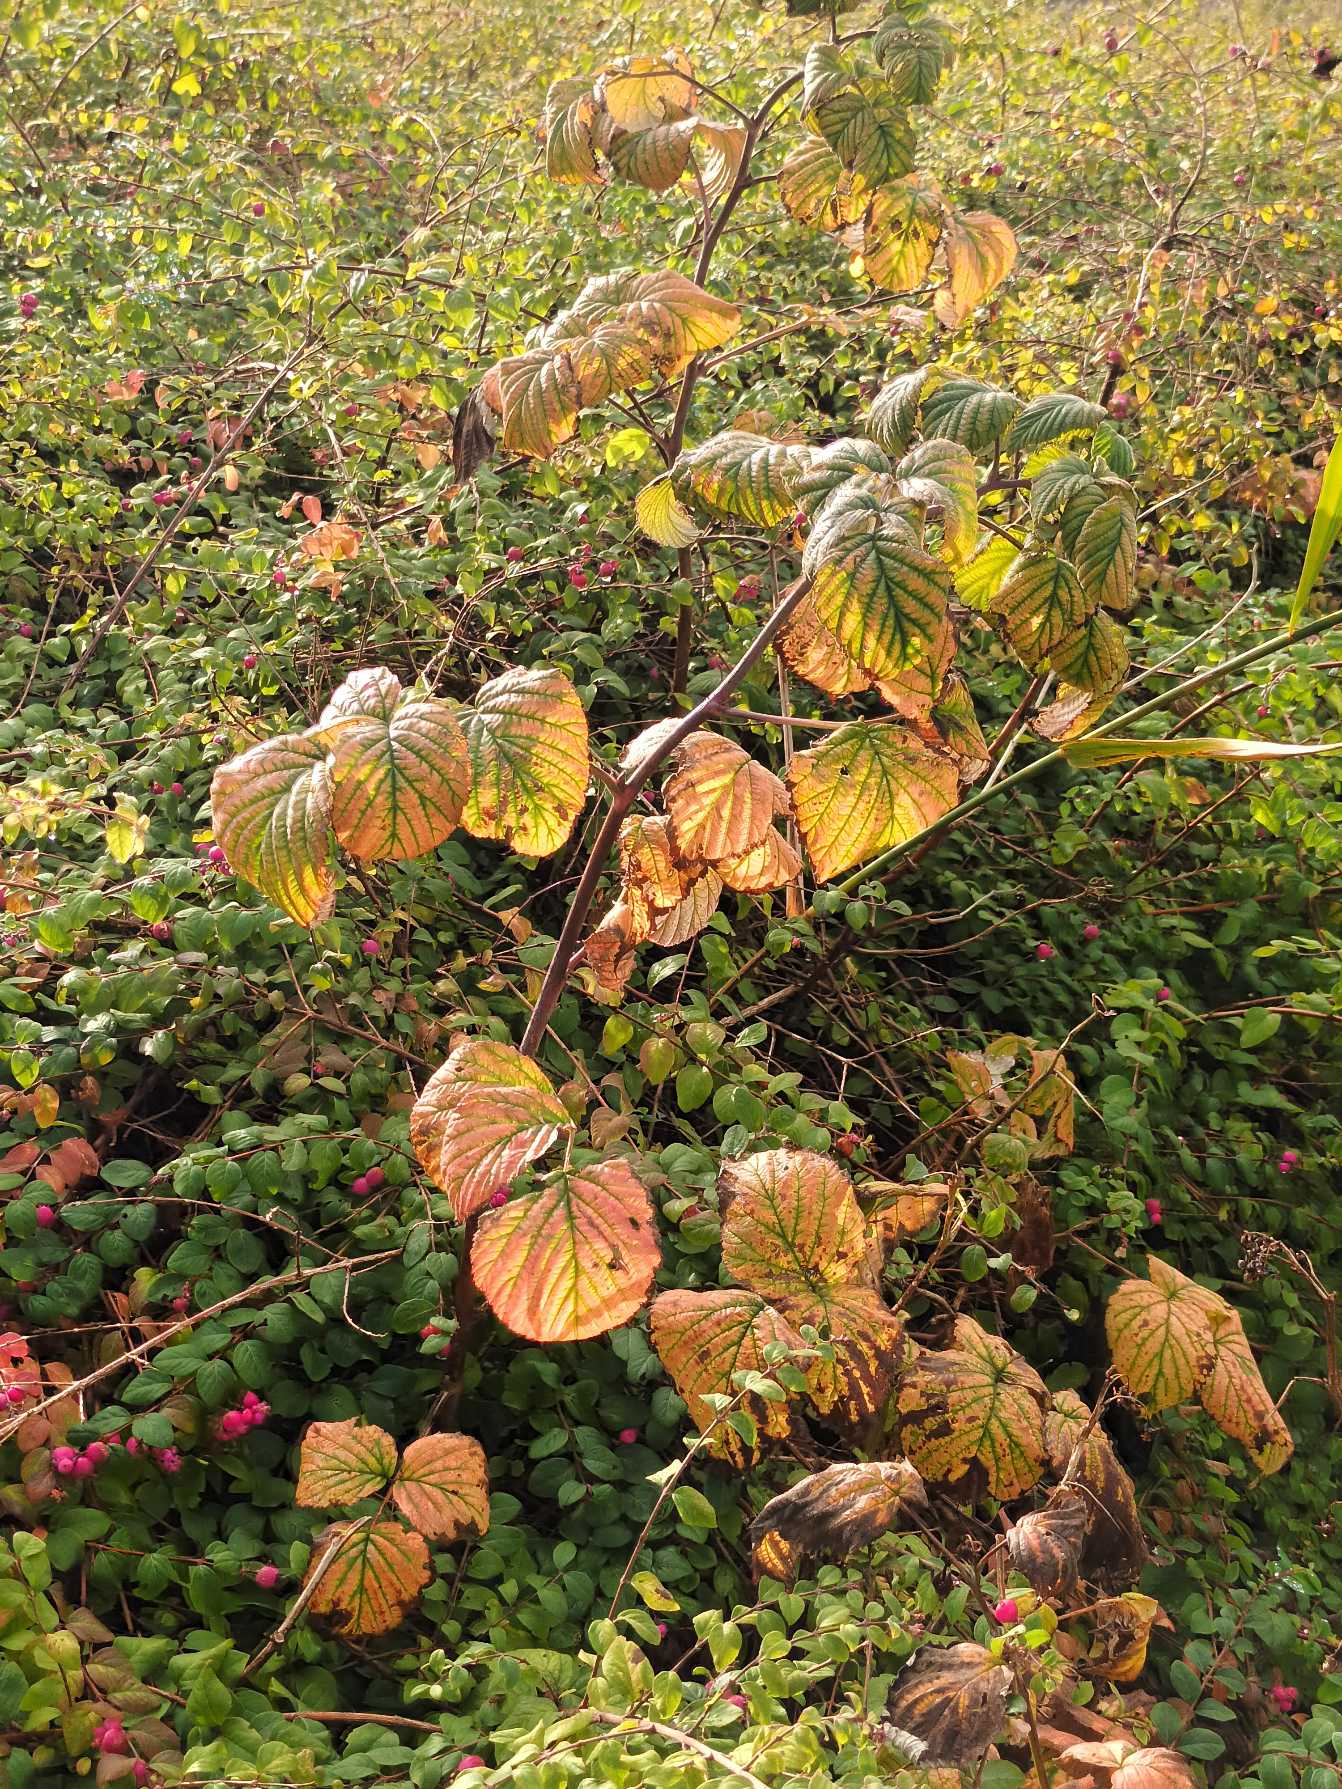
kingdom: Plantae
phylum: Tracheophyta
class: Magnoliopsida
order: Rosales
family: Rosaceae
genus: Rubus
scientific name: Rubus idaeus
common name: Hindbær
